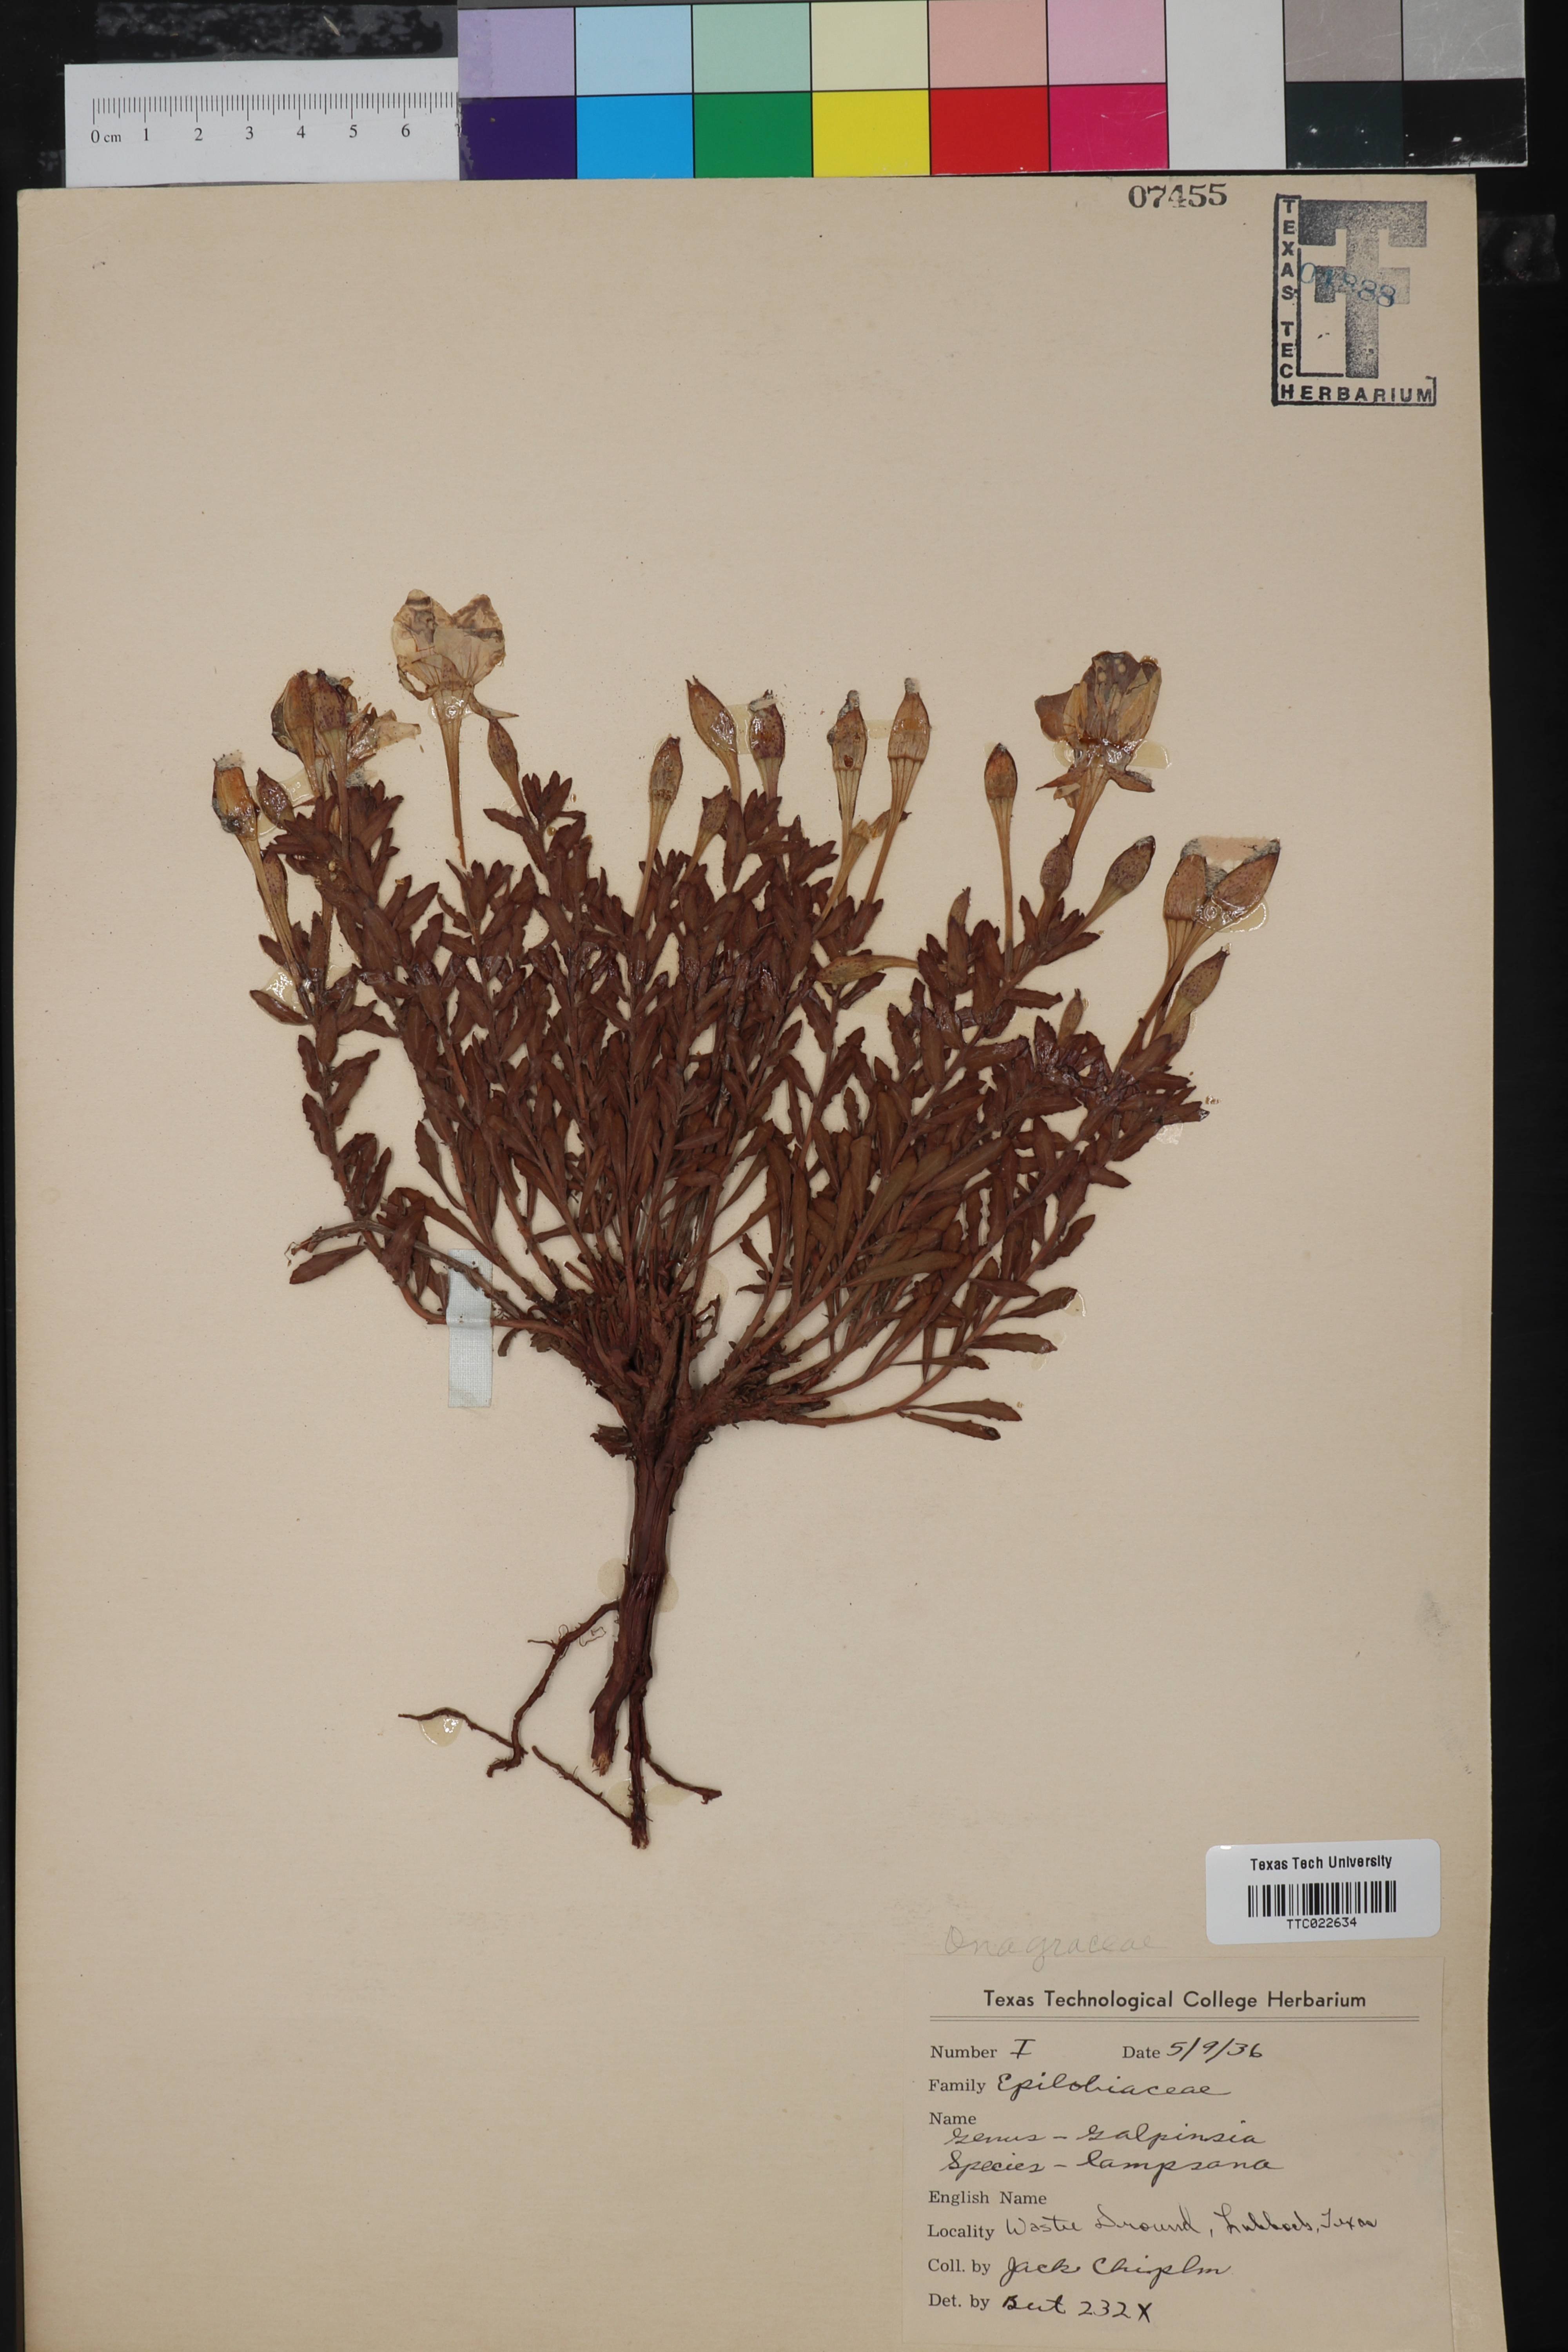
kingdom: Plantae
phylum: Tracheophyta
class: Magnoliopsida
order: Myrtales
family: Onagraceae
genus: Oenothera
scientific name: Oenothera Galpinsia lampsana
